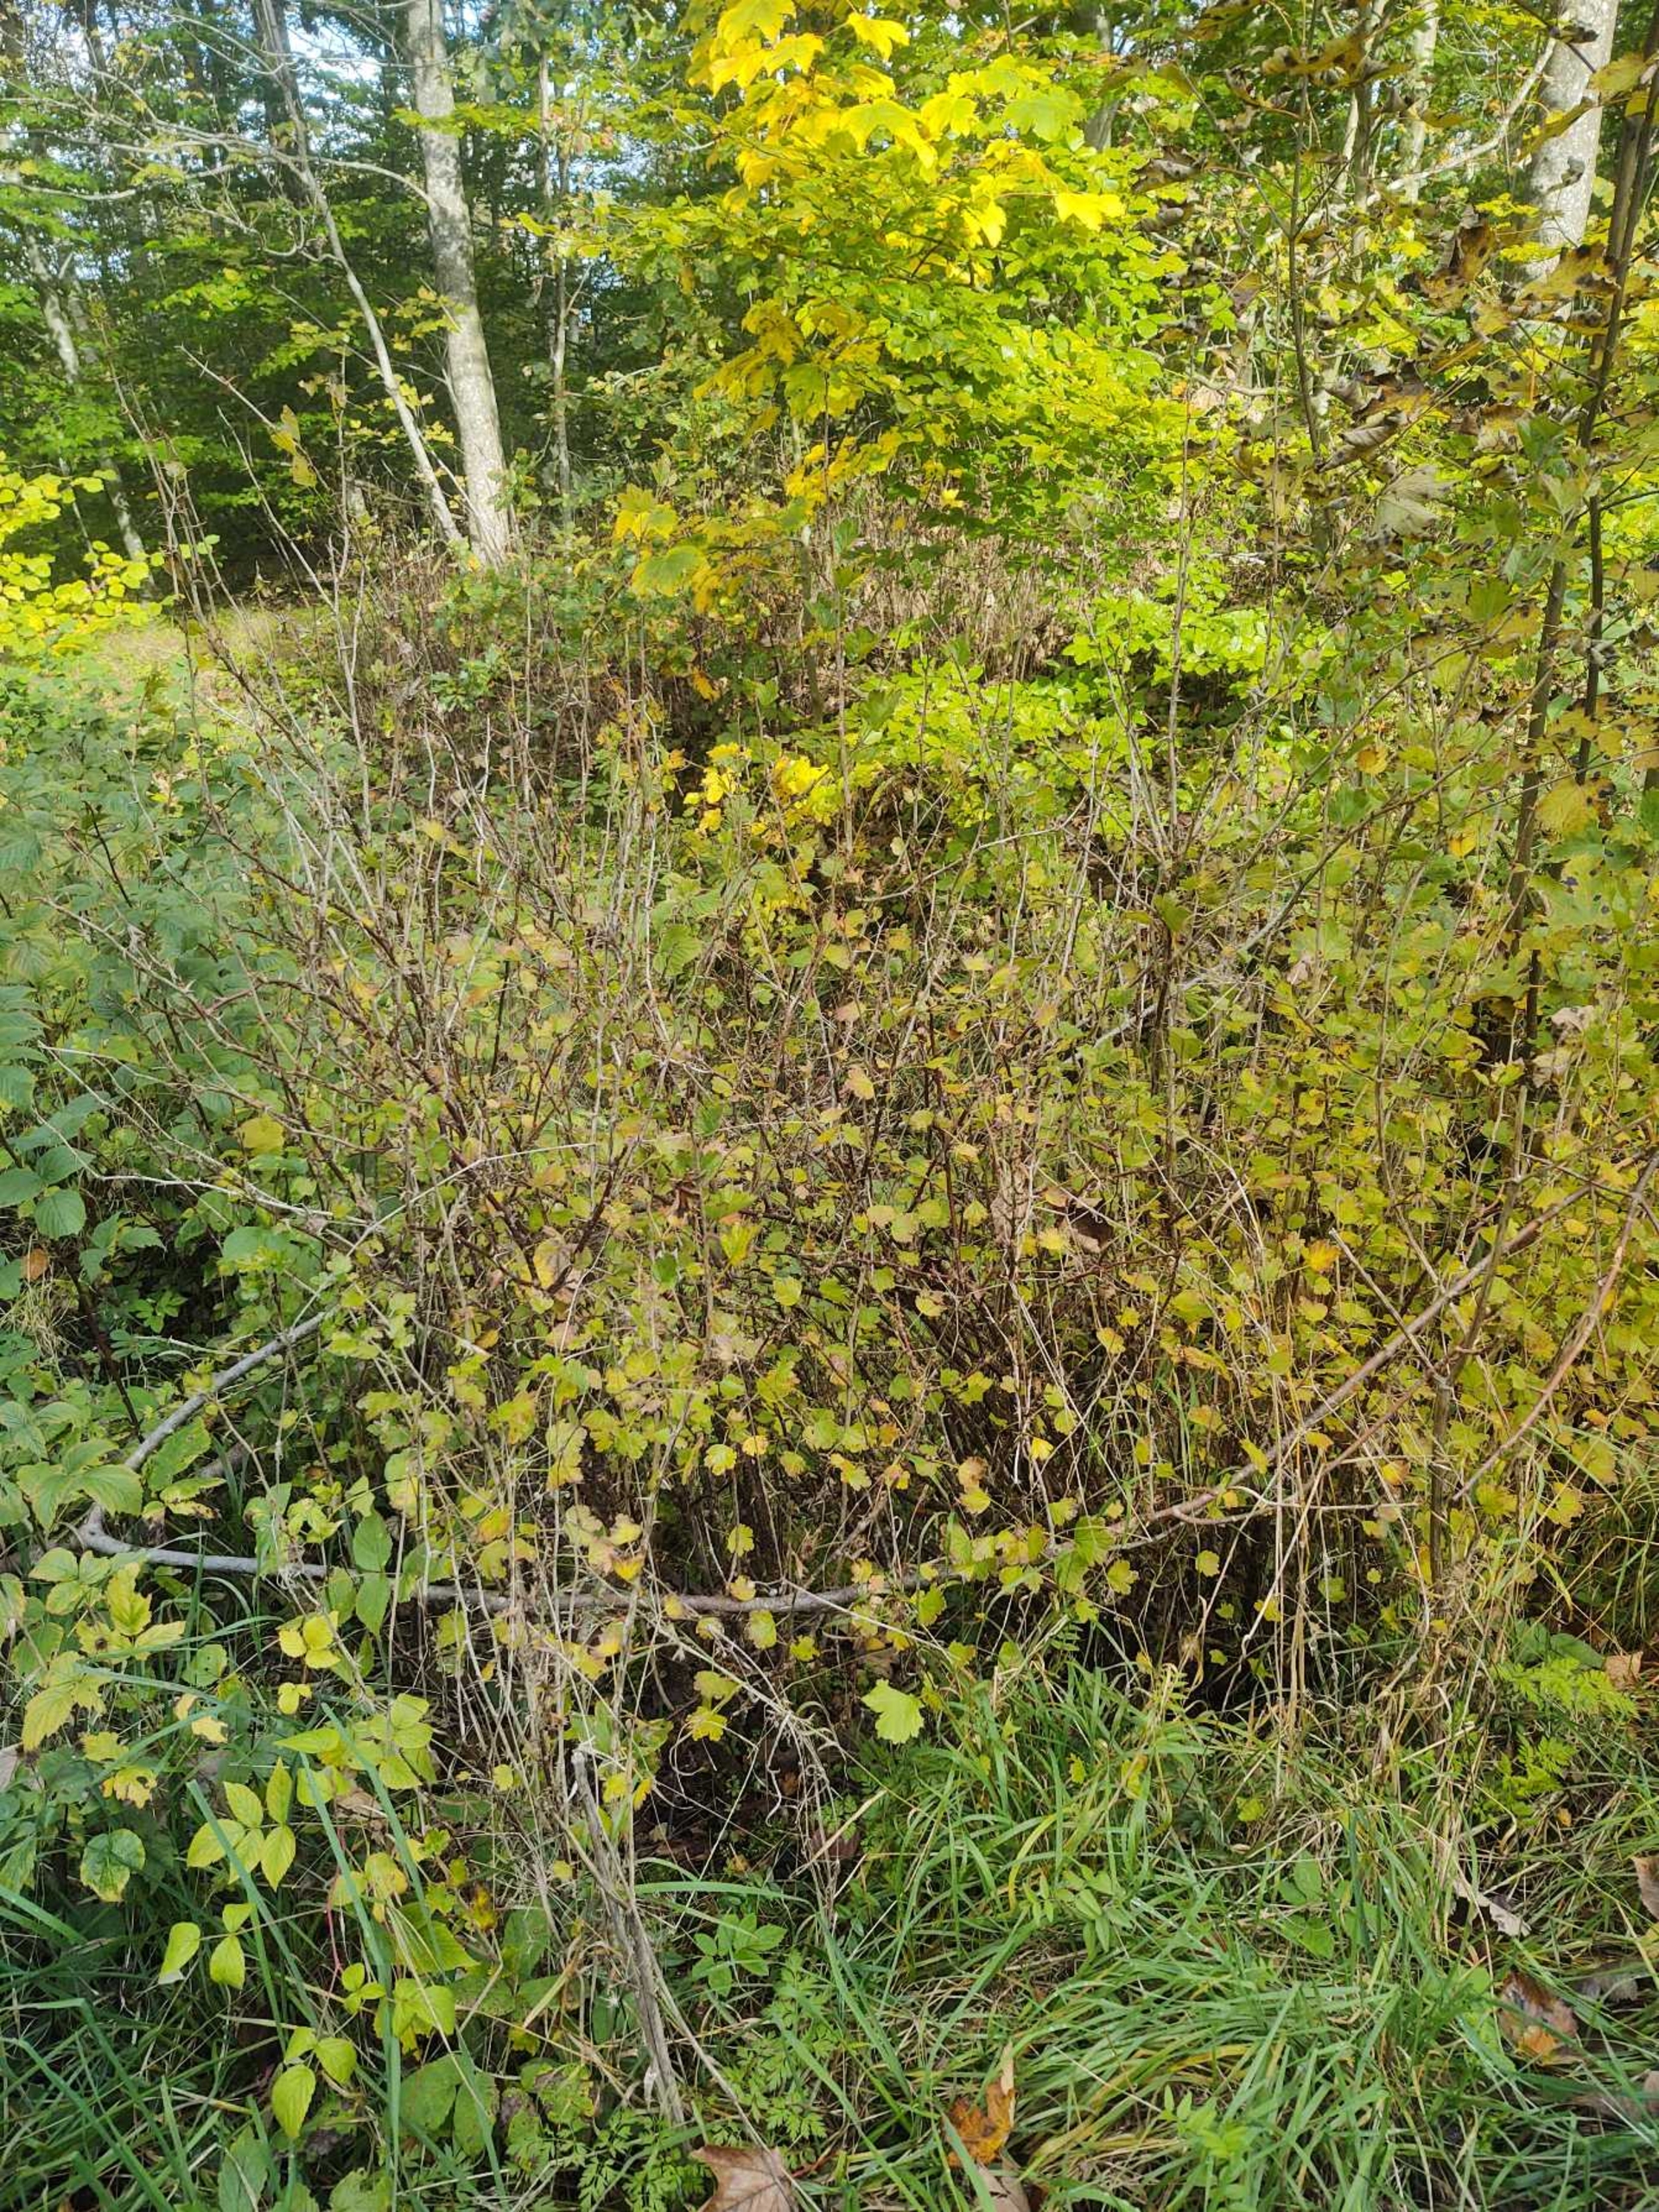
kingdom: Plantae
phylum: Tracheophyta
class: Magnoliopsida
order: Saxifragales
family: Grossulariaceae
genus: Ribes
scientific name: Ribes uva-crispa
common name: Stikkelsbær
